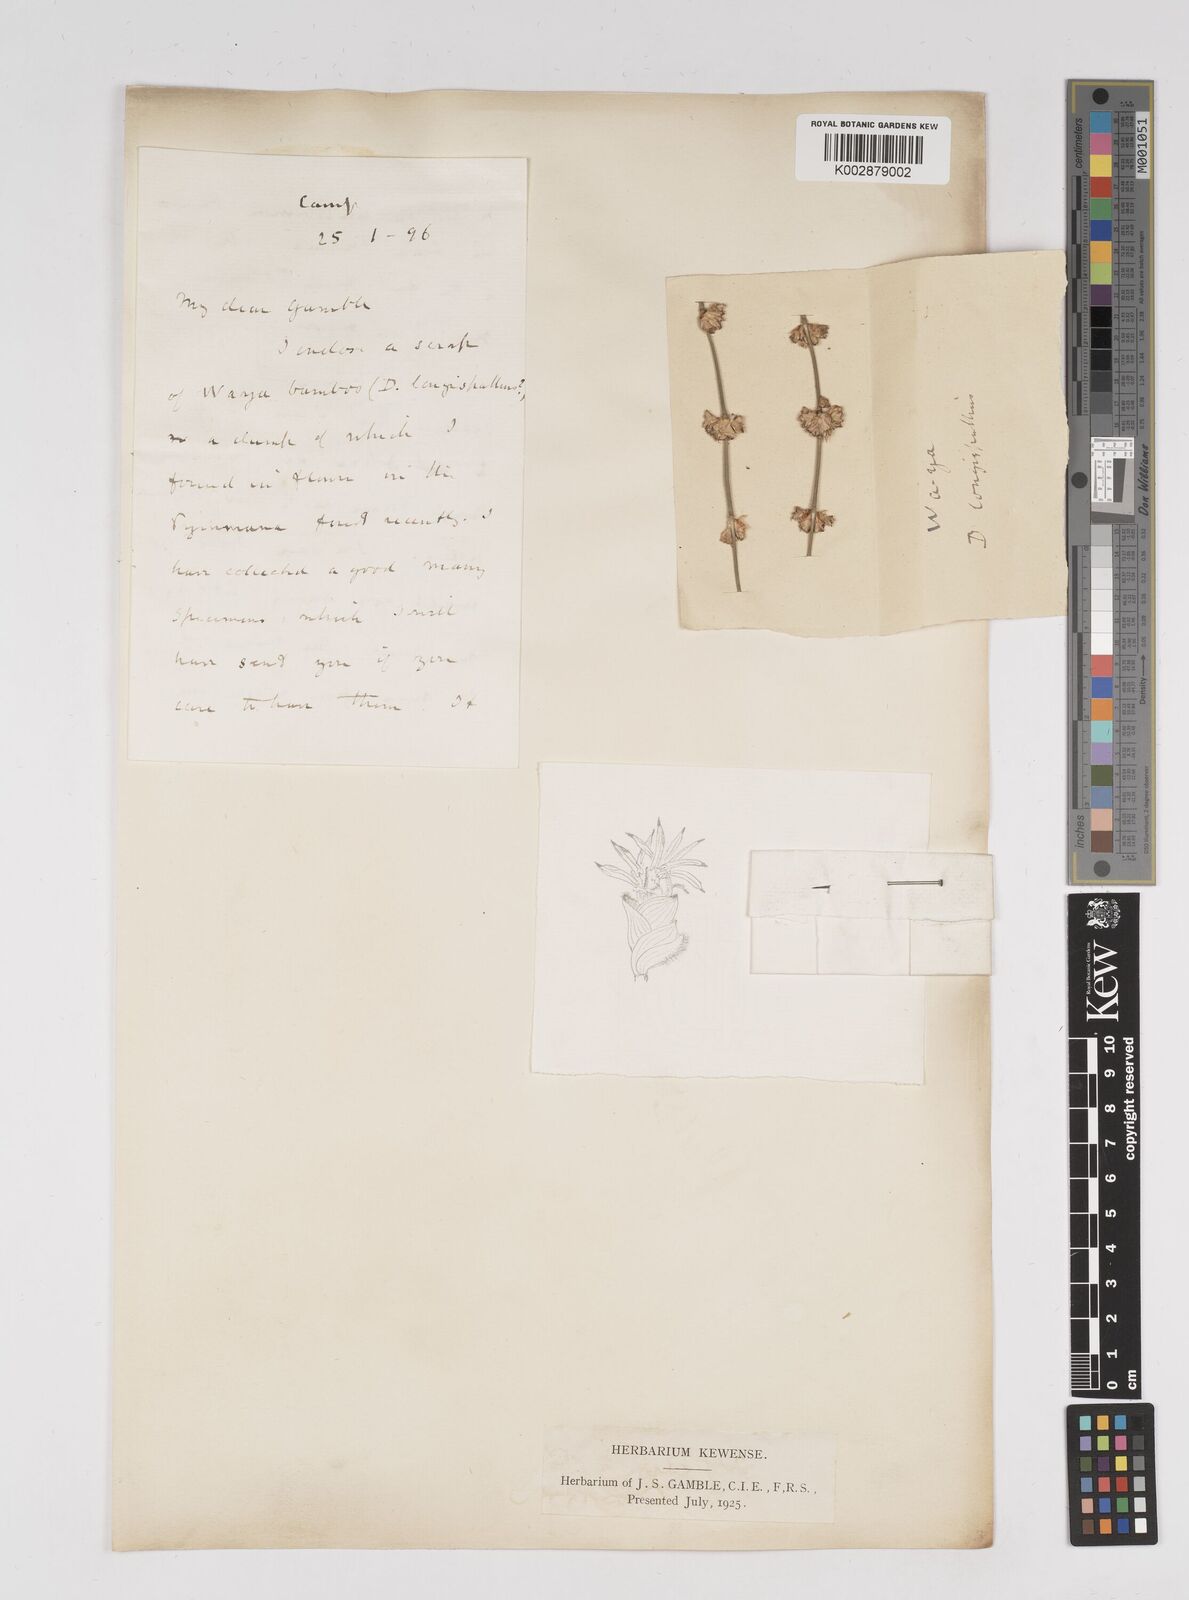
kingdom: Plantae
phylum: Tracheophyta
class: Liliopsida
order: Poales
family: Poaceae
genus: Dendrocalamus
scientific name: Dendrocalamus longispathus
